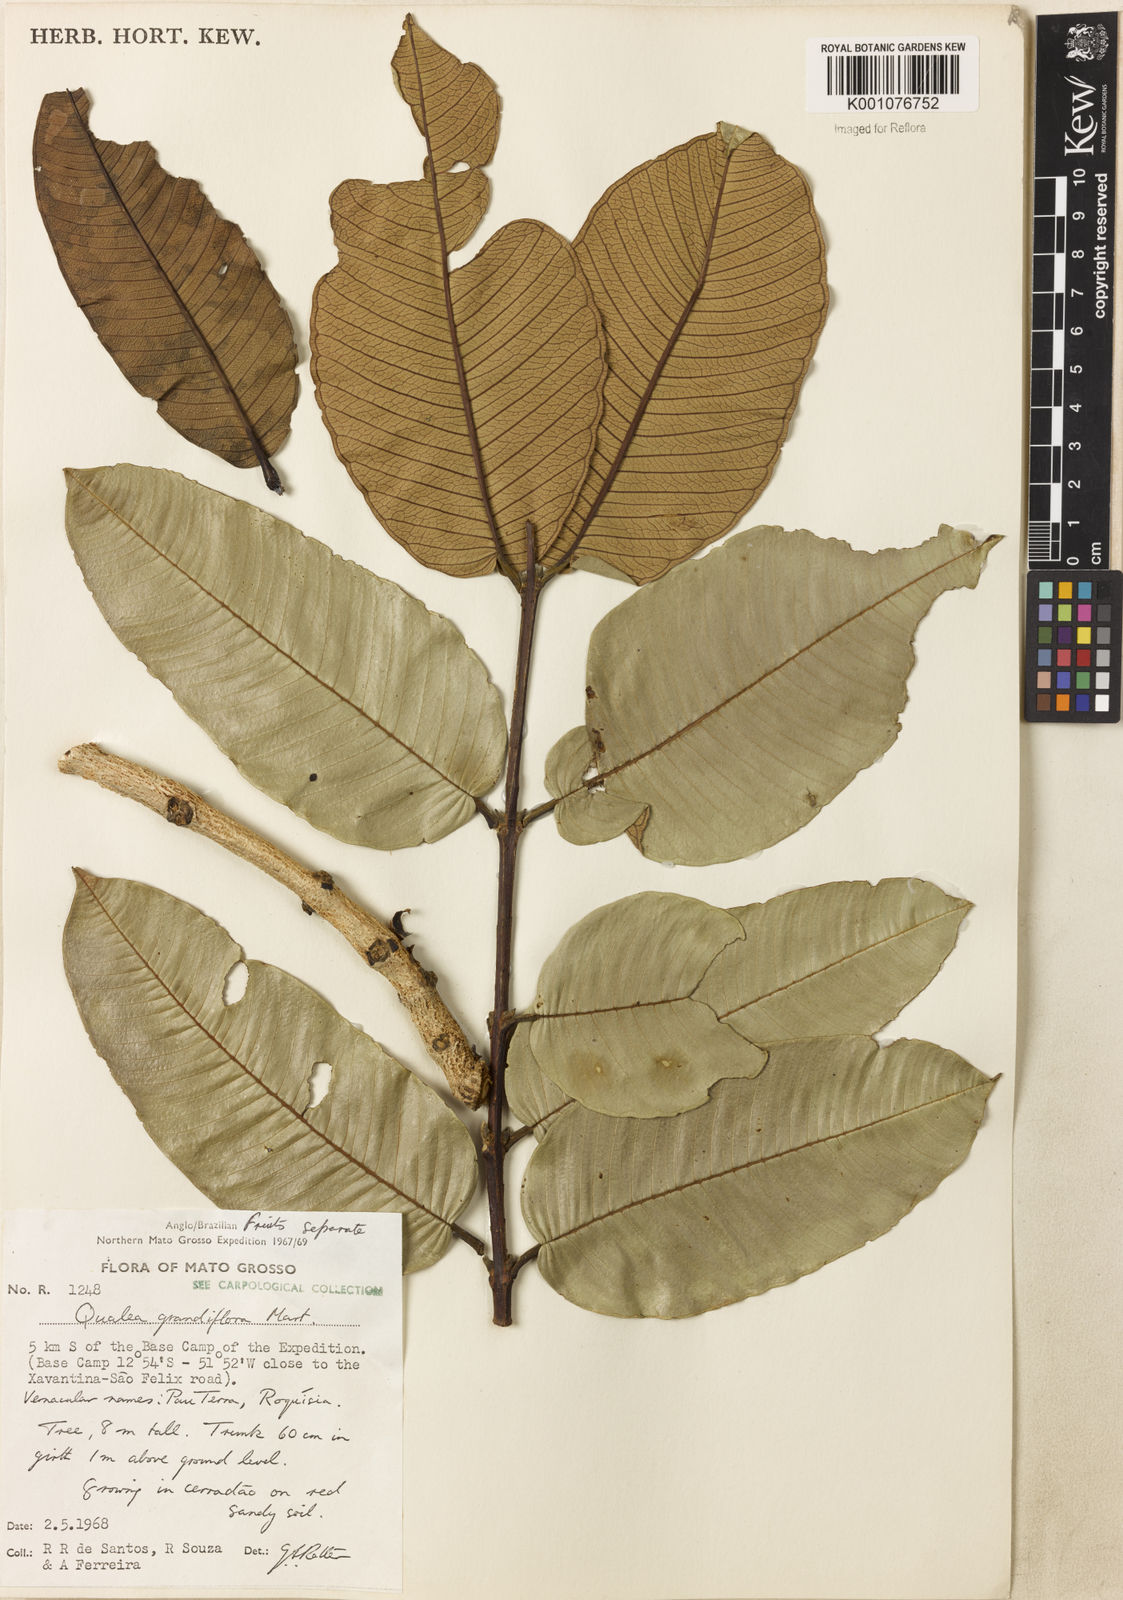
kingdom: Plantae
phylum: Tracheophyta
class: Magnoliopsida
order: Myrtales
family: Vochysiaceae
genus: Qualea
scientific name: Qualea grandiflora
